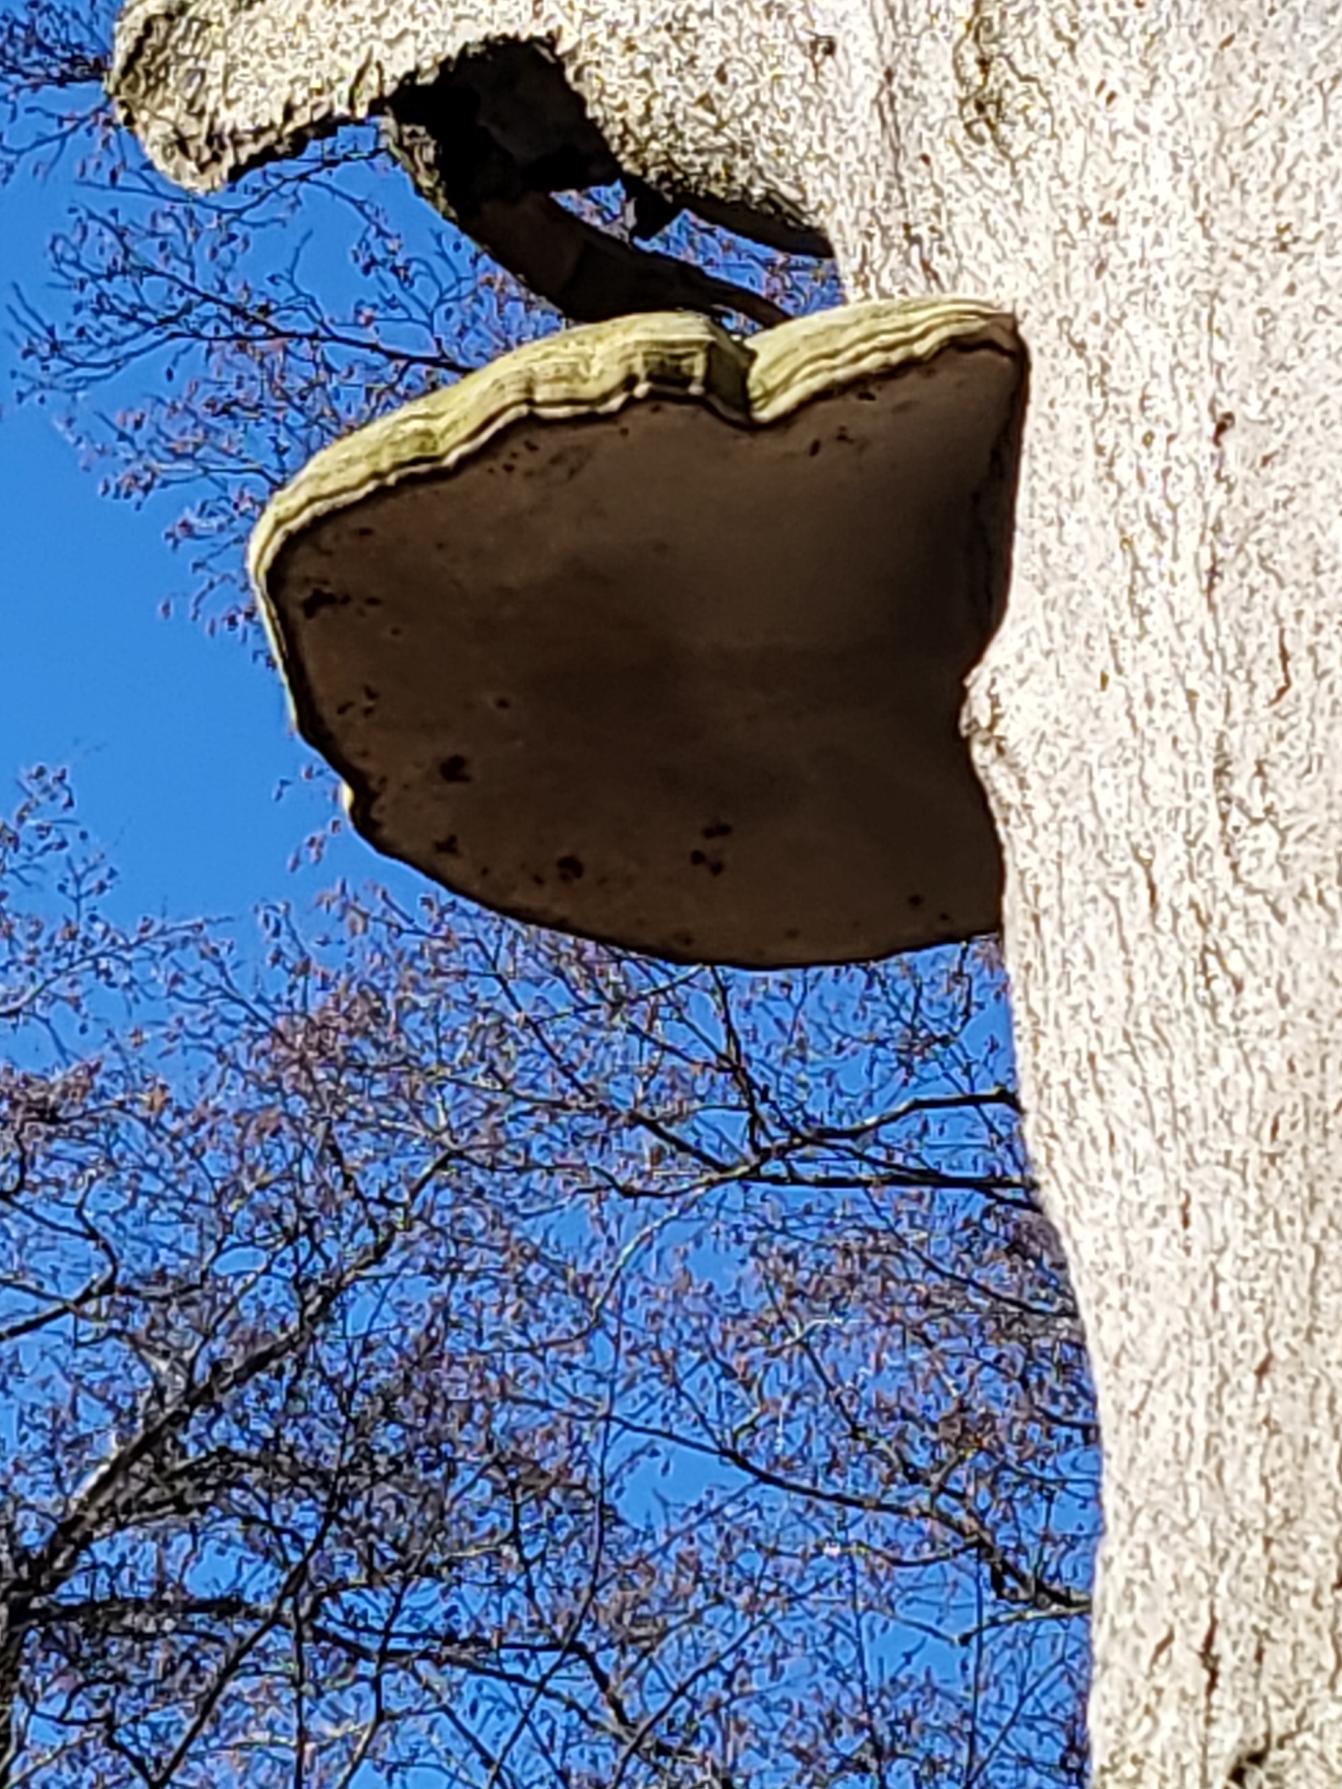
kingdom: Fungi
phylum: Basidiomycota
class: Agaricomycetes
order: Polyporales
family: Polyporaceae
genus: Fomes
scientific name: Fomes fomentarius
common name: Tøndersvamp
